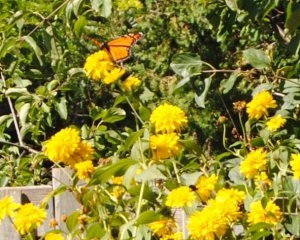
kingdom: Animalia
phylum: Arthropoda
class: Insecta
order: Lepidoptera
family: Nymphalidae
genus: Danaus
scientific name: Danaus plexippus
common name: Monarch
